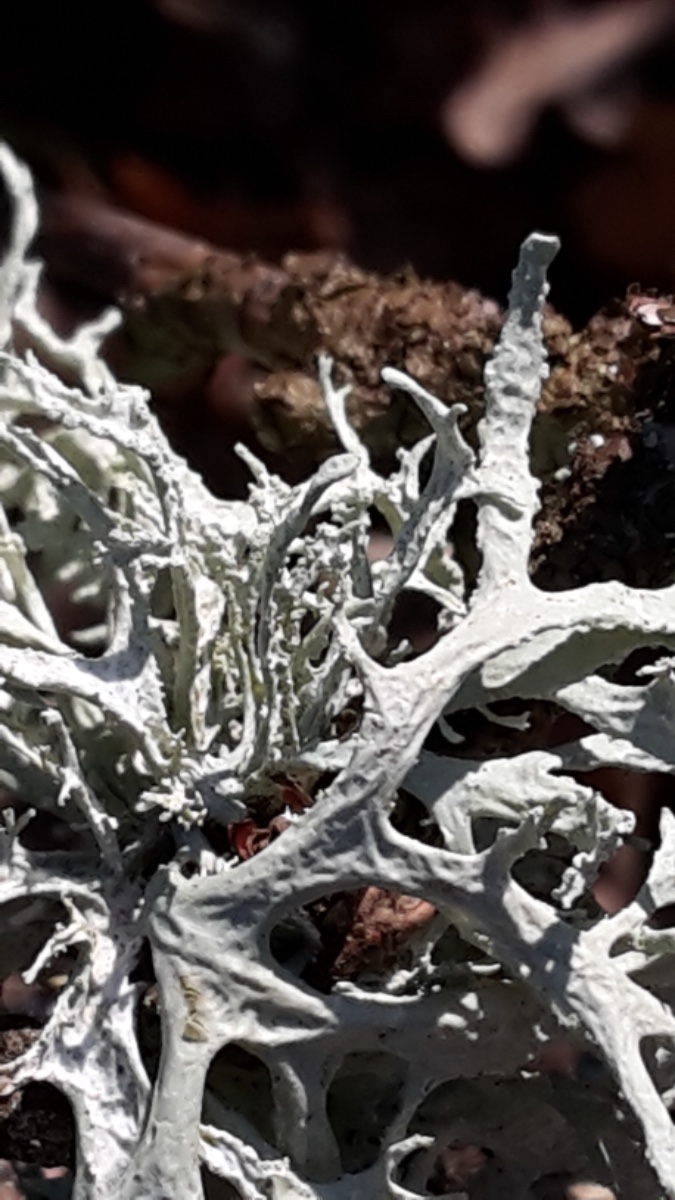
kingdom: Fungi
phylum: Ascomycota
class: Lecanoromycetes
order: Lecanorales
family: Parmeliaceae
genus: Evernia
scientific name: Evernia prunastri
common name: almindelig slåenlav
